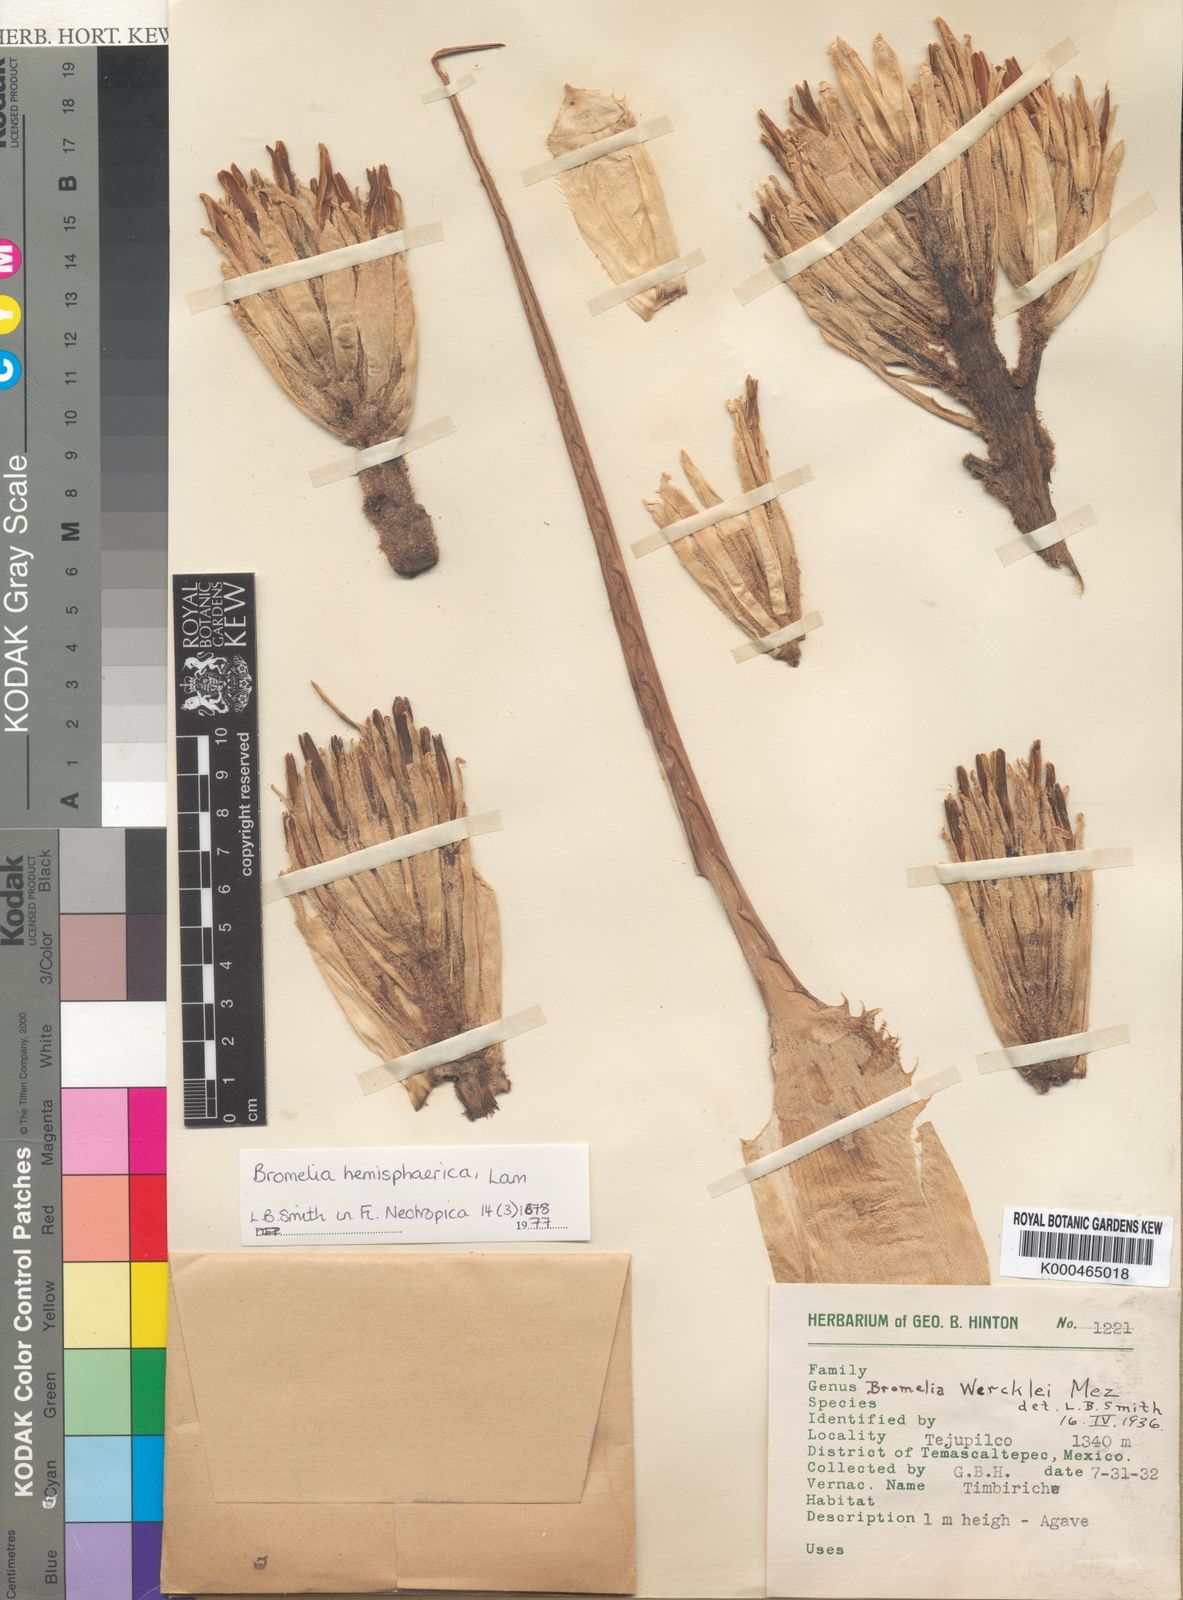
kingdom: Plantae
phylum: Tracheophyta
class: Liliopsida
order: Poales
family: Bromeliaceae
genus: Bromelia
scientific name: Bromelia hemisphaerica
